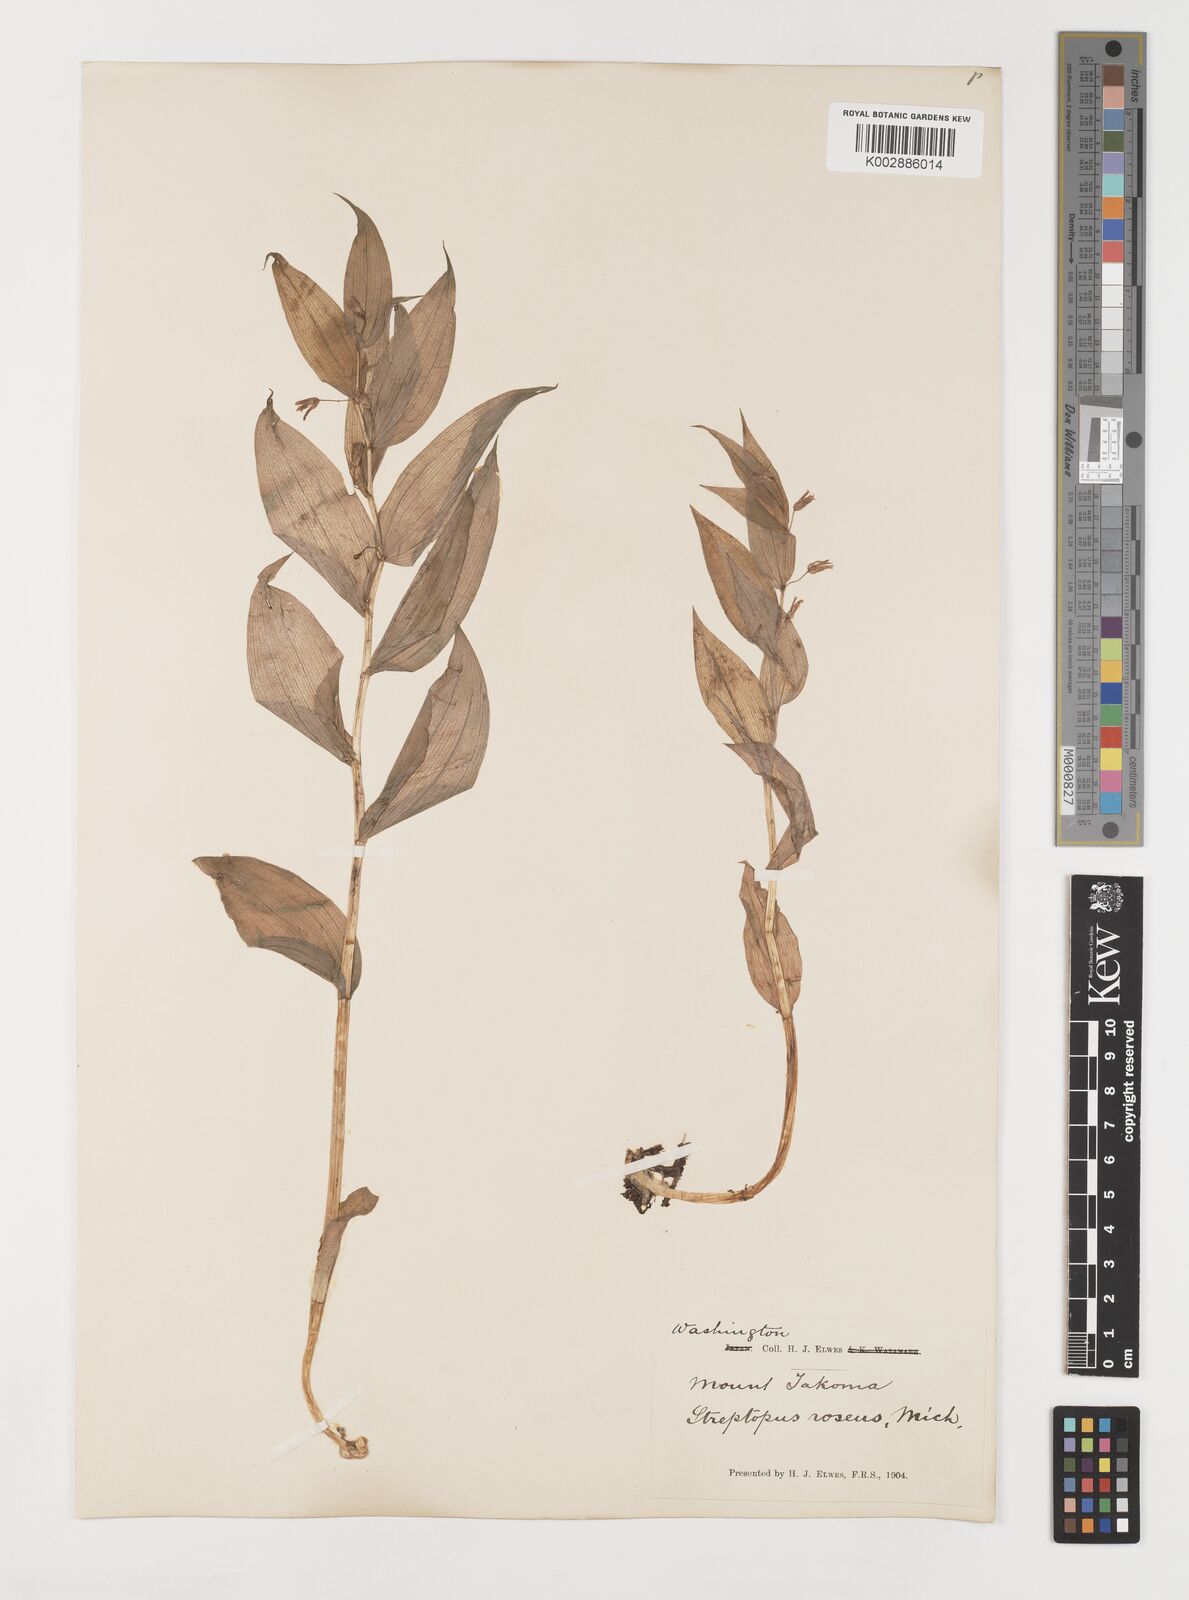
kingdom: Plantae
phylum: Tracheophyta
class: Liliopsida
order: Liliales
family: Liliaceae
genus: Streptopus
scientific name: Streptopus lanceolatus
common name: Rose mandarin
